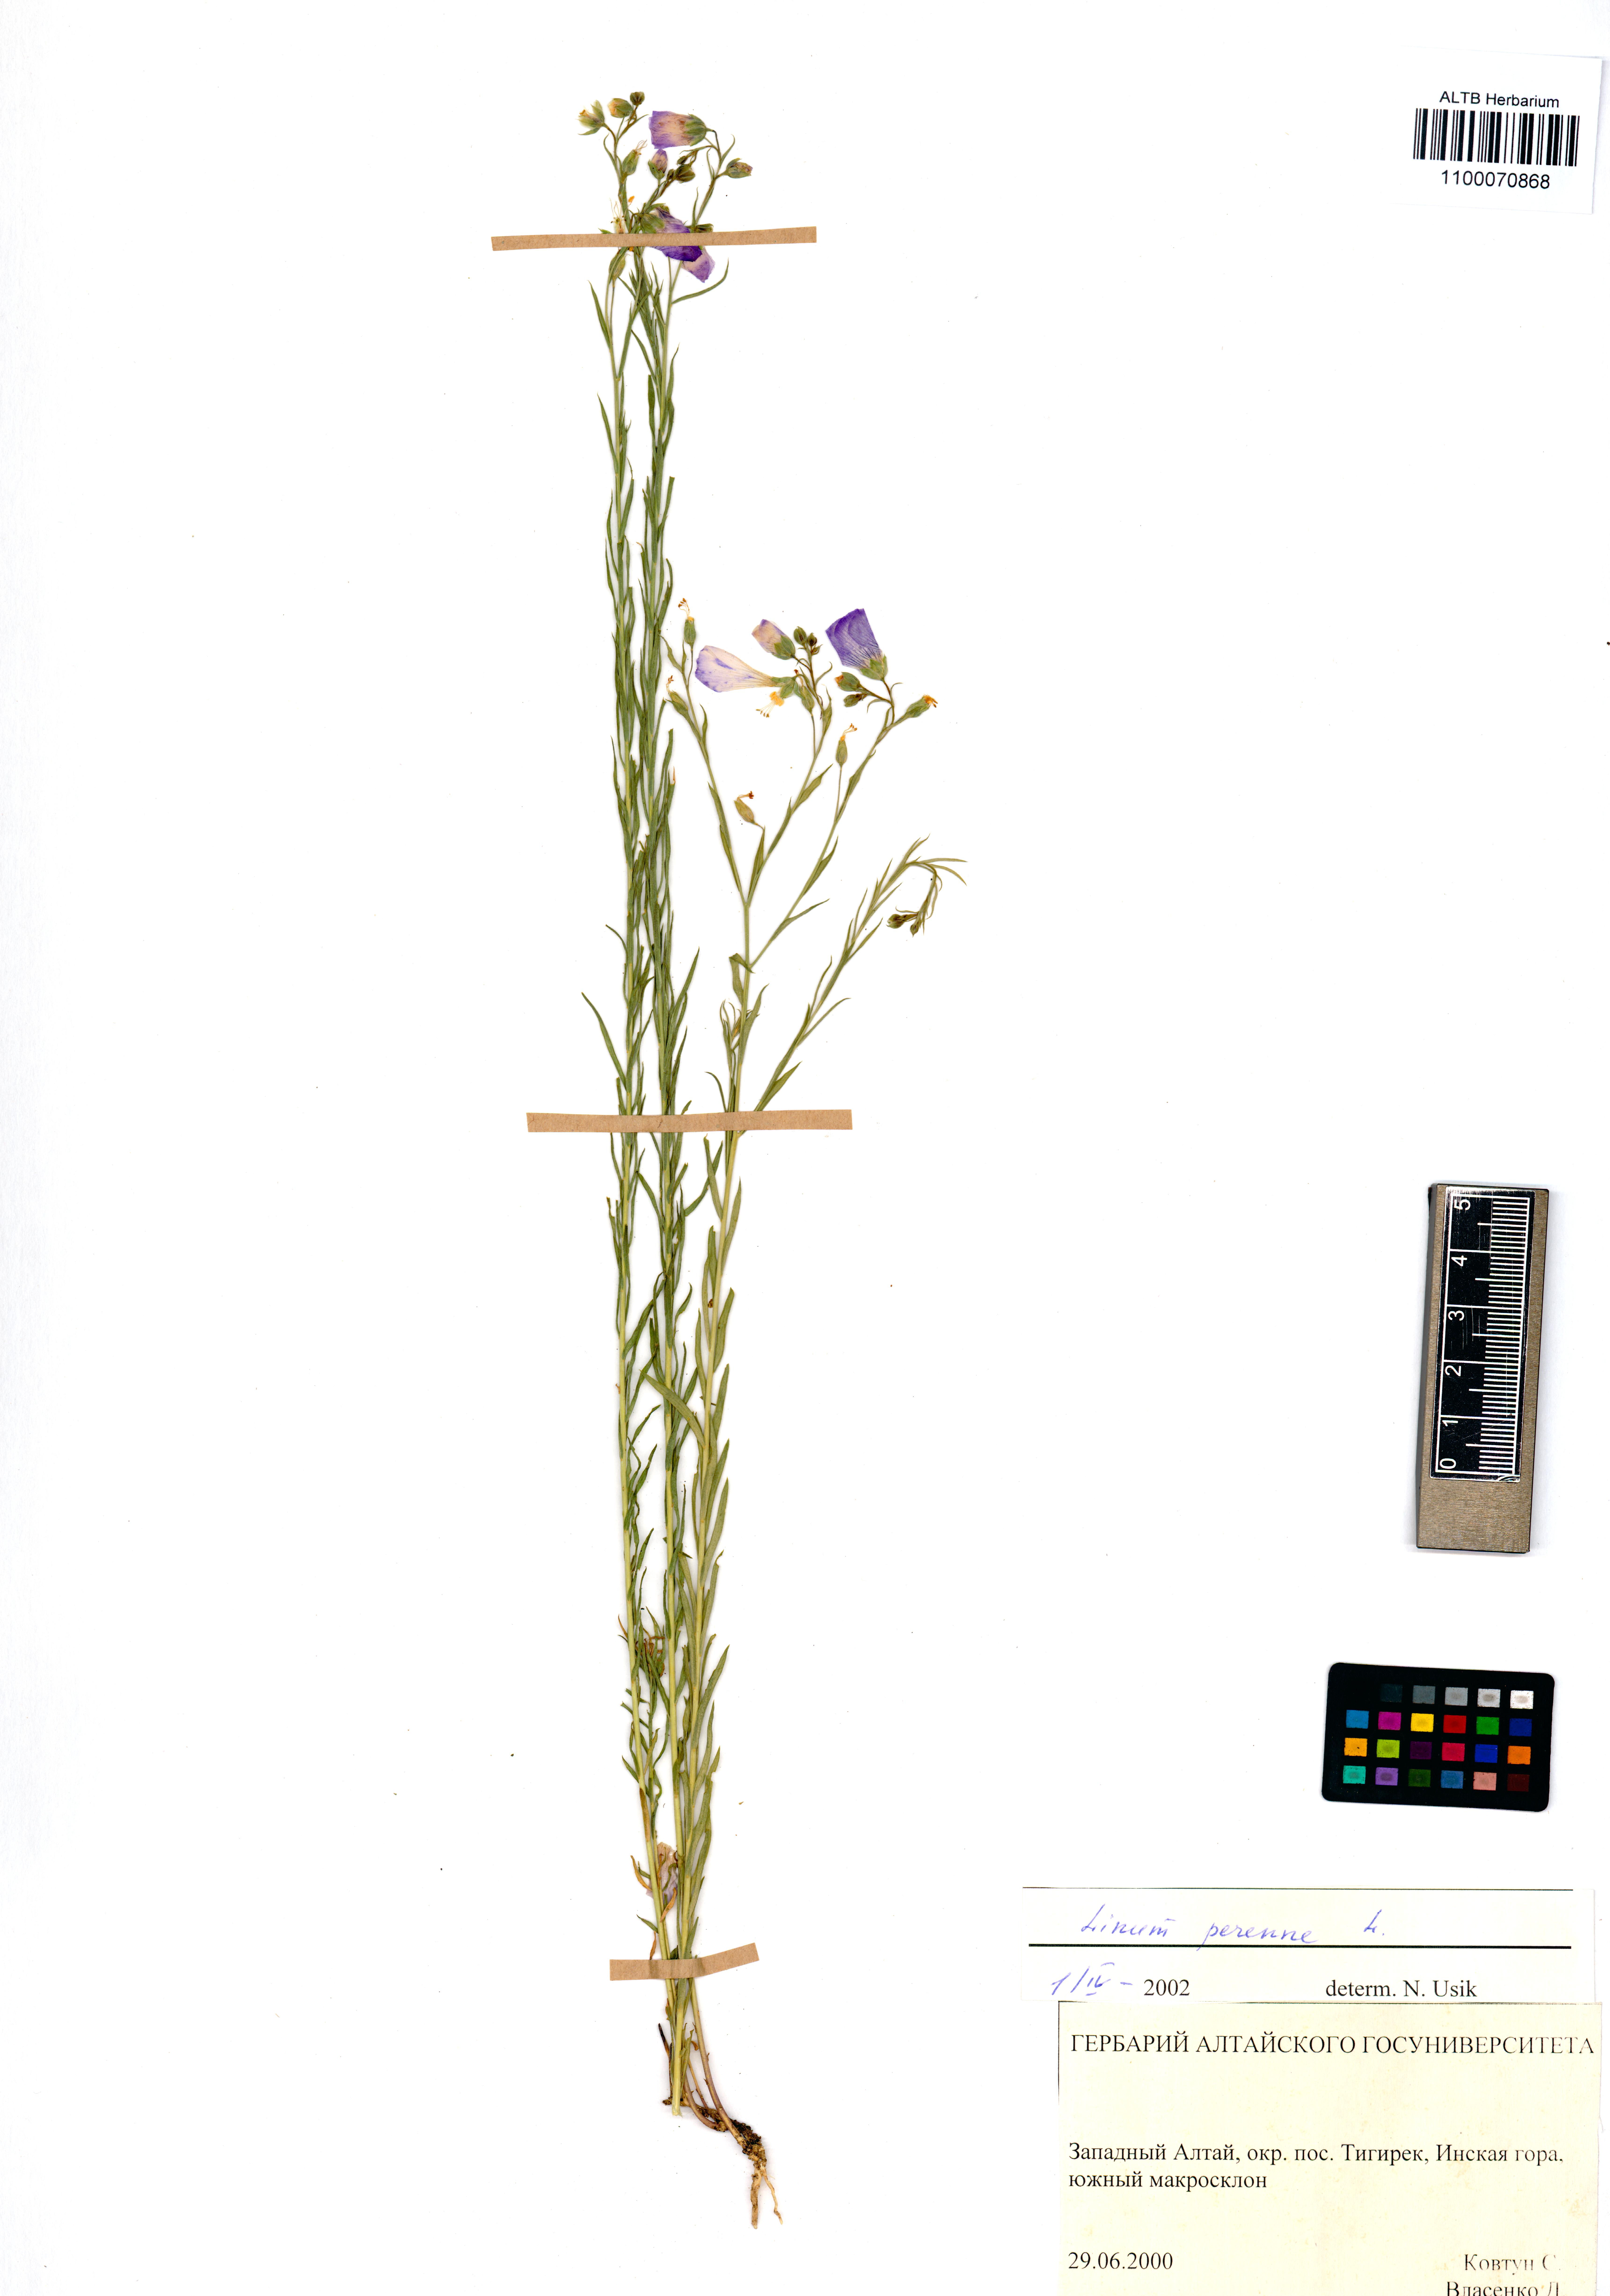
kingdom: Plantae
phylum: Tracheophyta
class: Magnoliopsida
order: Malpighiales
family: Linaceae
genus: Linum
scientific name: Linum perenne
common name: Blue flax
